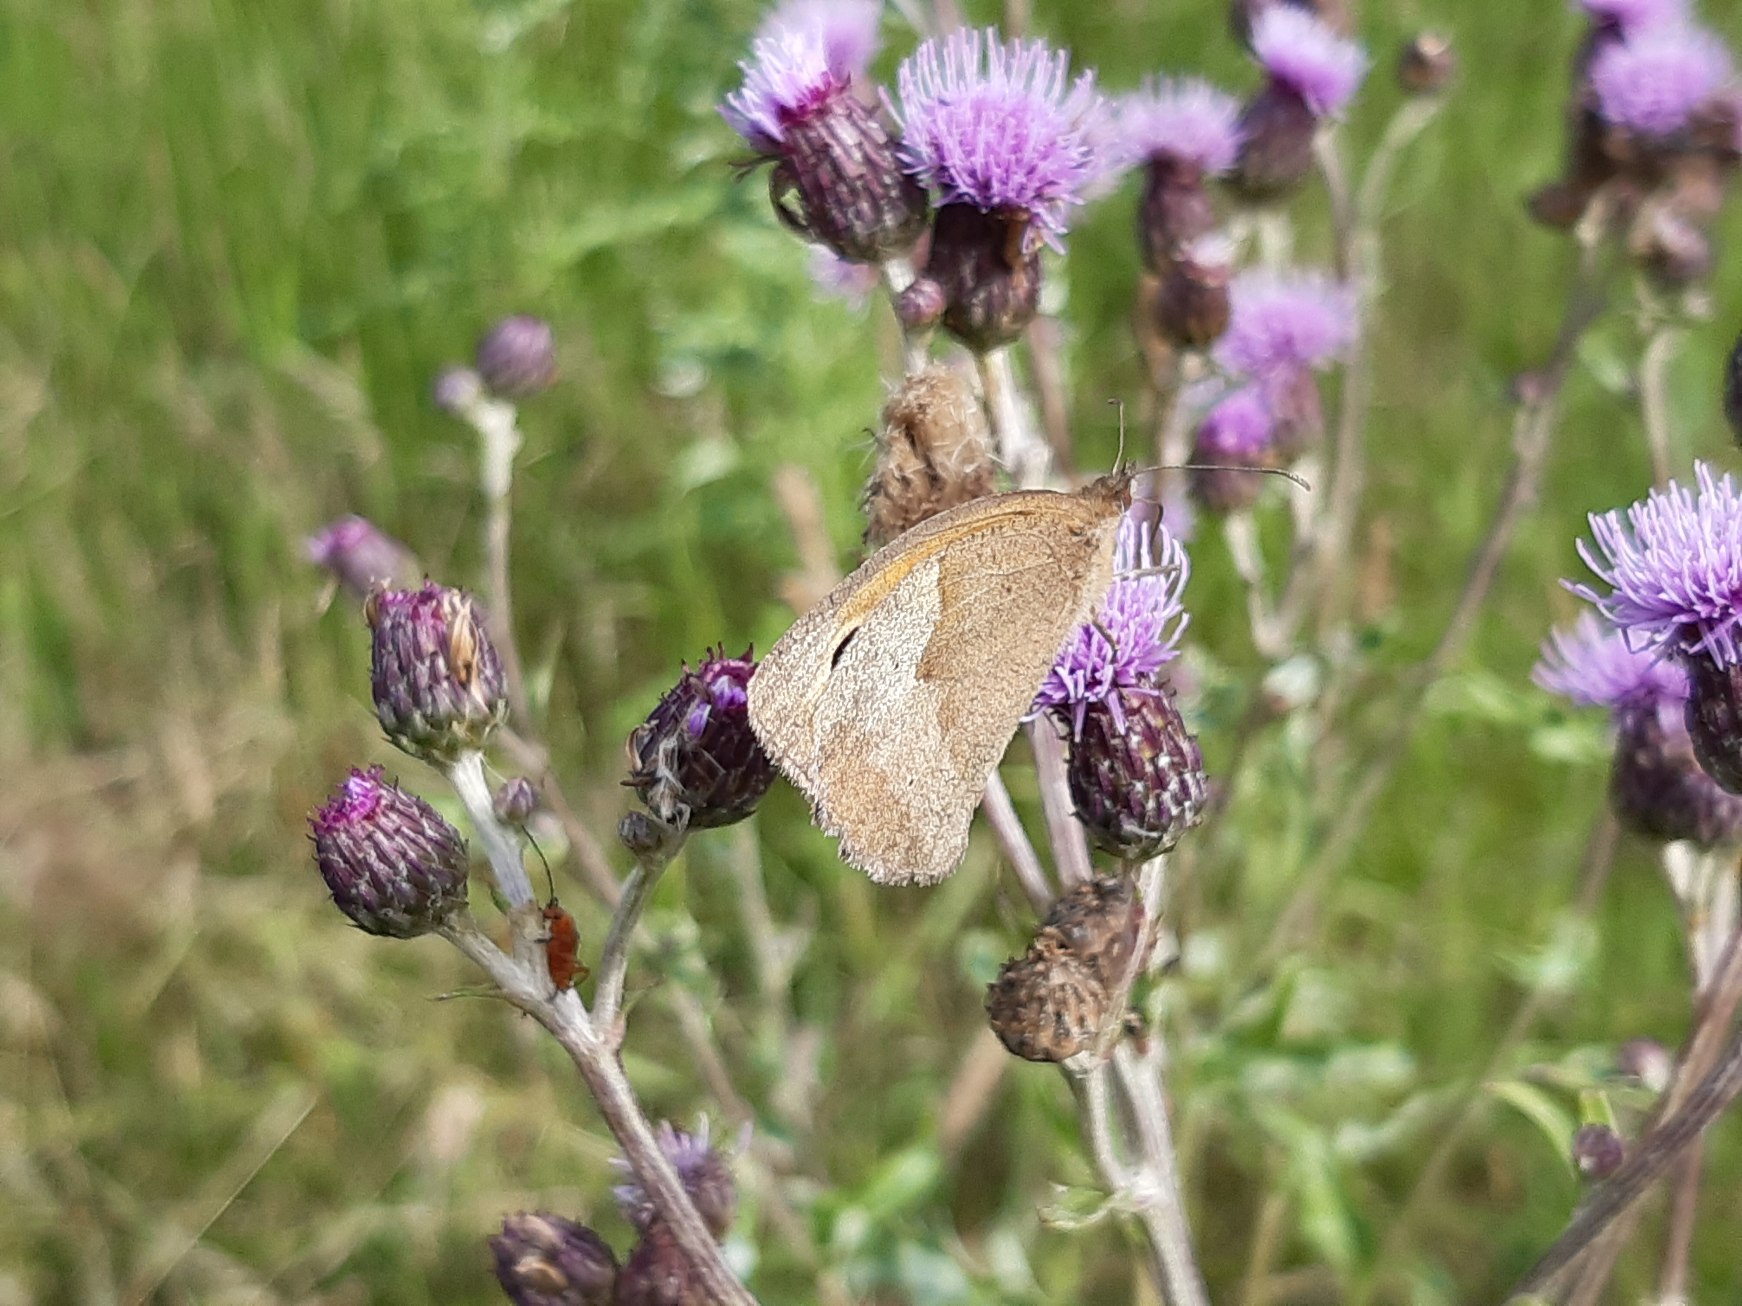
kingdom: Animalia
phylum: Arthropoda
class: Insecta
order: Lepidoptera
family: Nymphalidae
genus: Maniola
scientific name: Maniola jurtina
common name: Græsrandøje
